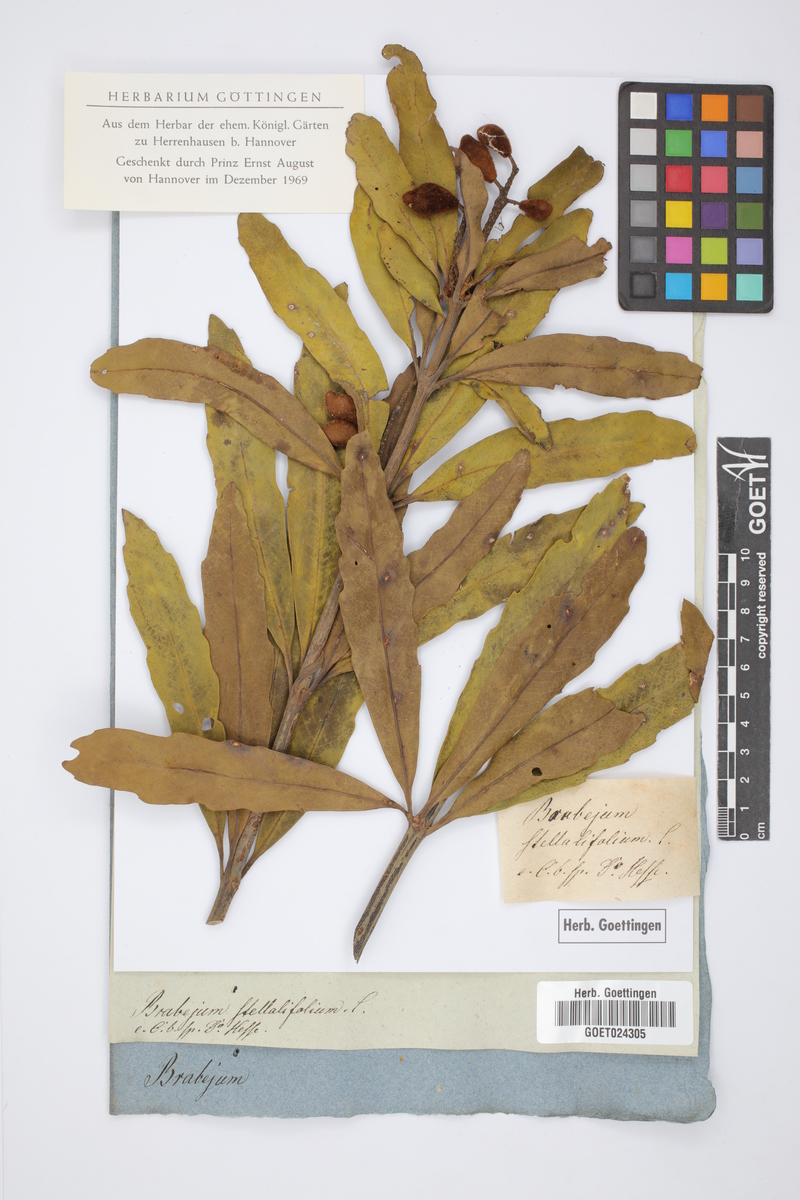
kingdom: Plantae
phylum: Tracheophyta
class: Magnoliopsida
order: Proteales
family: Proteaceae
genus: Brabejum
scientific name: Brabejum stellatifolium
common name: Wild almond
